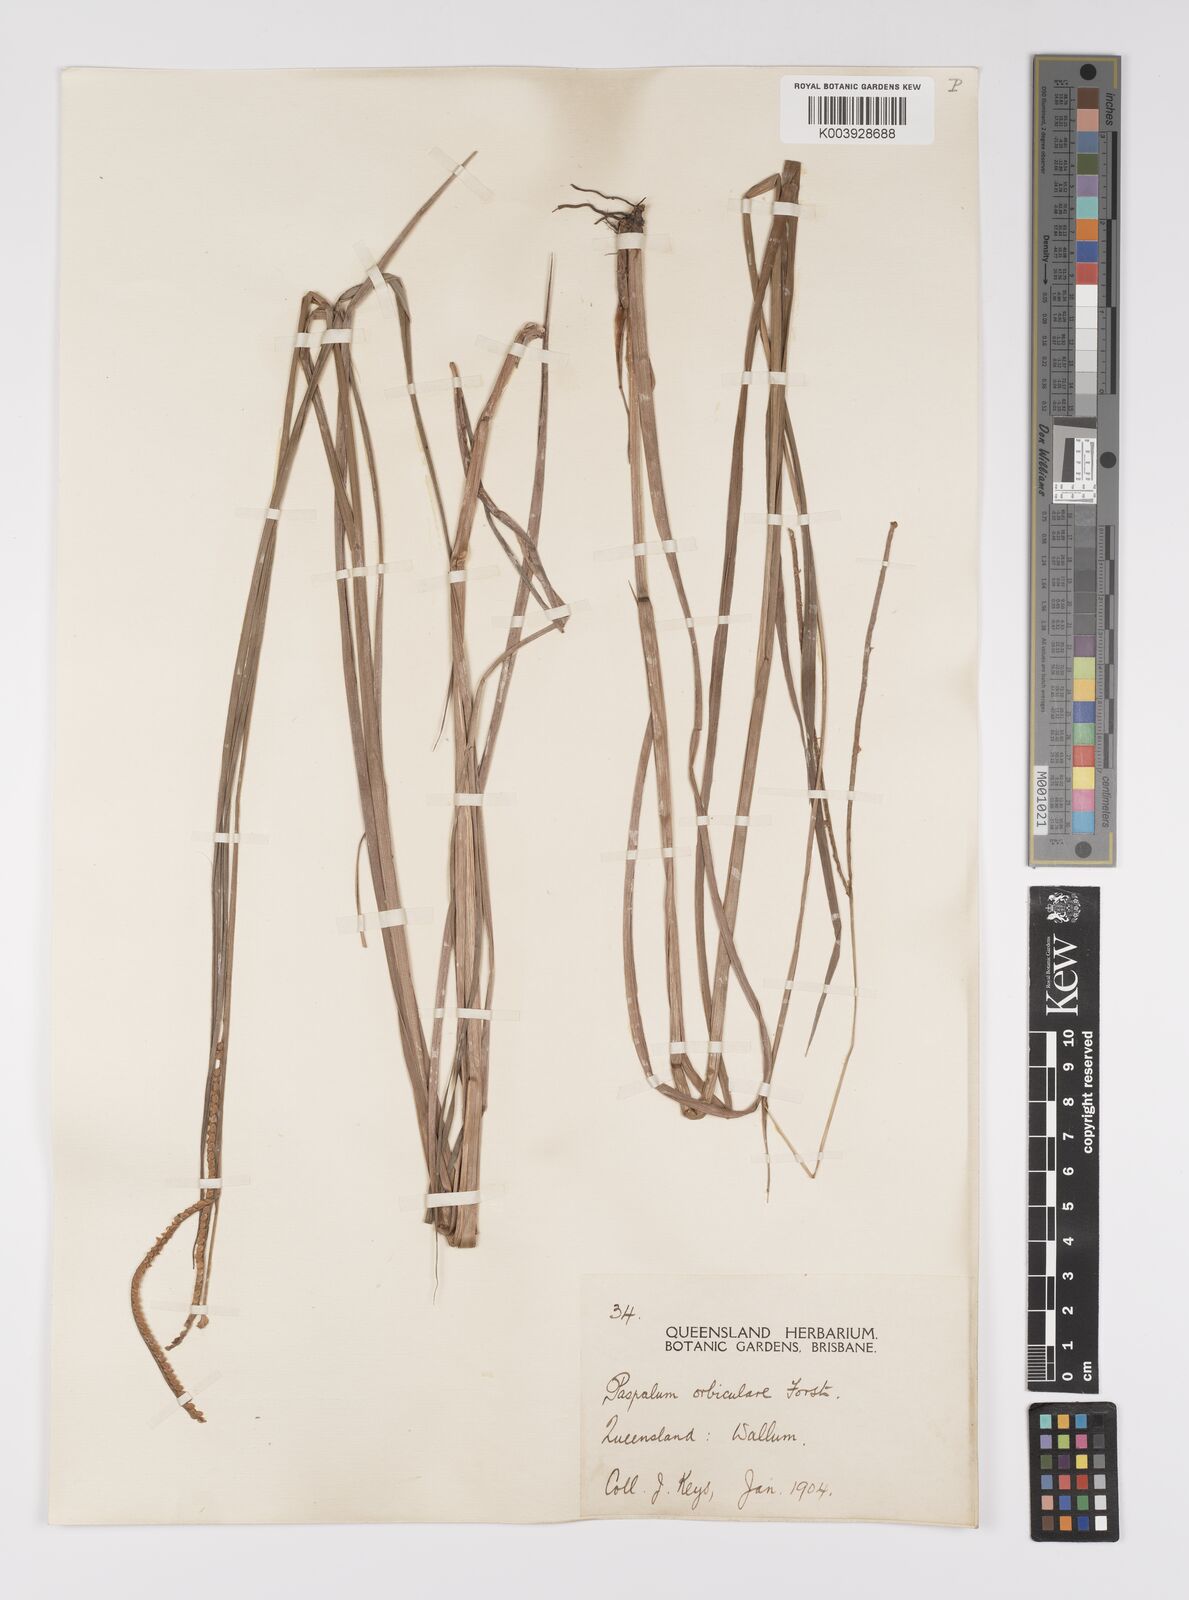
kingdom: Plantae
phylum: Tracheophyta
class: Liliopsida
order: Poales
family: Poaceae
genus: Paspalum
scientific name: Paspalum scrobiculatum
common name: Kodo millet
